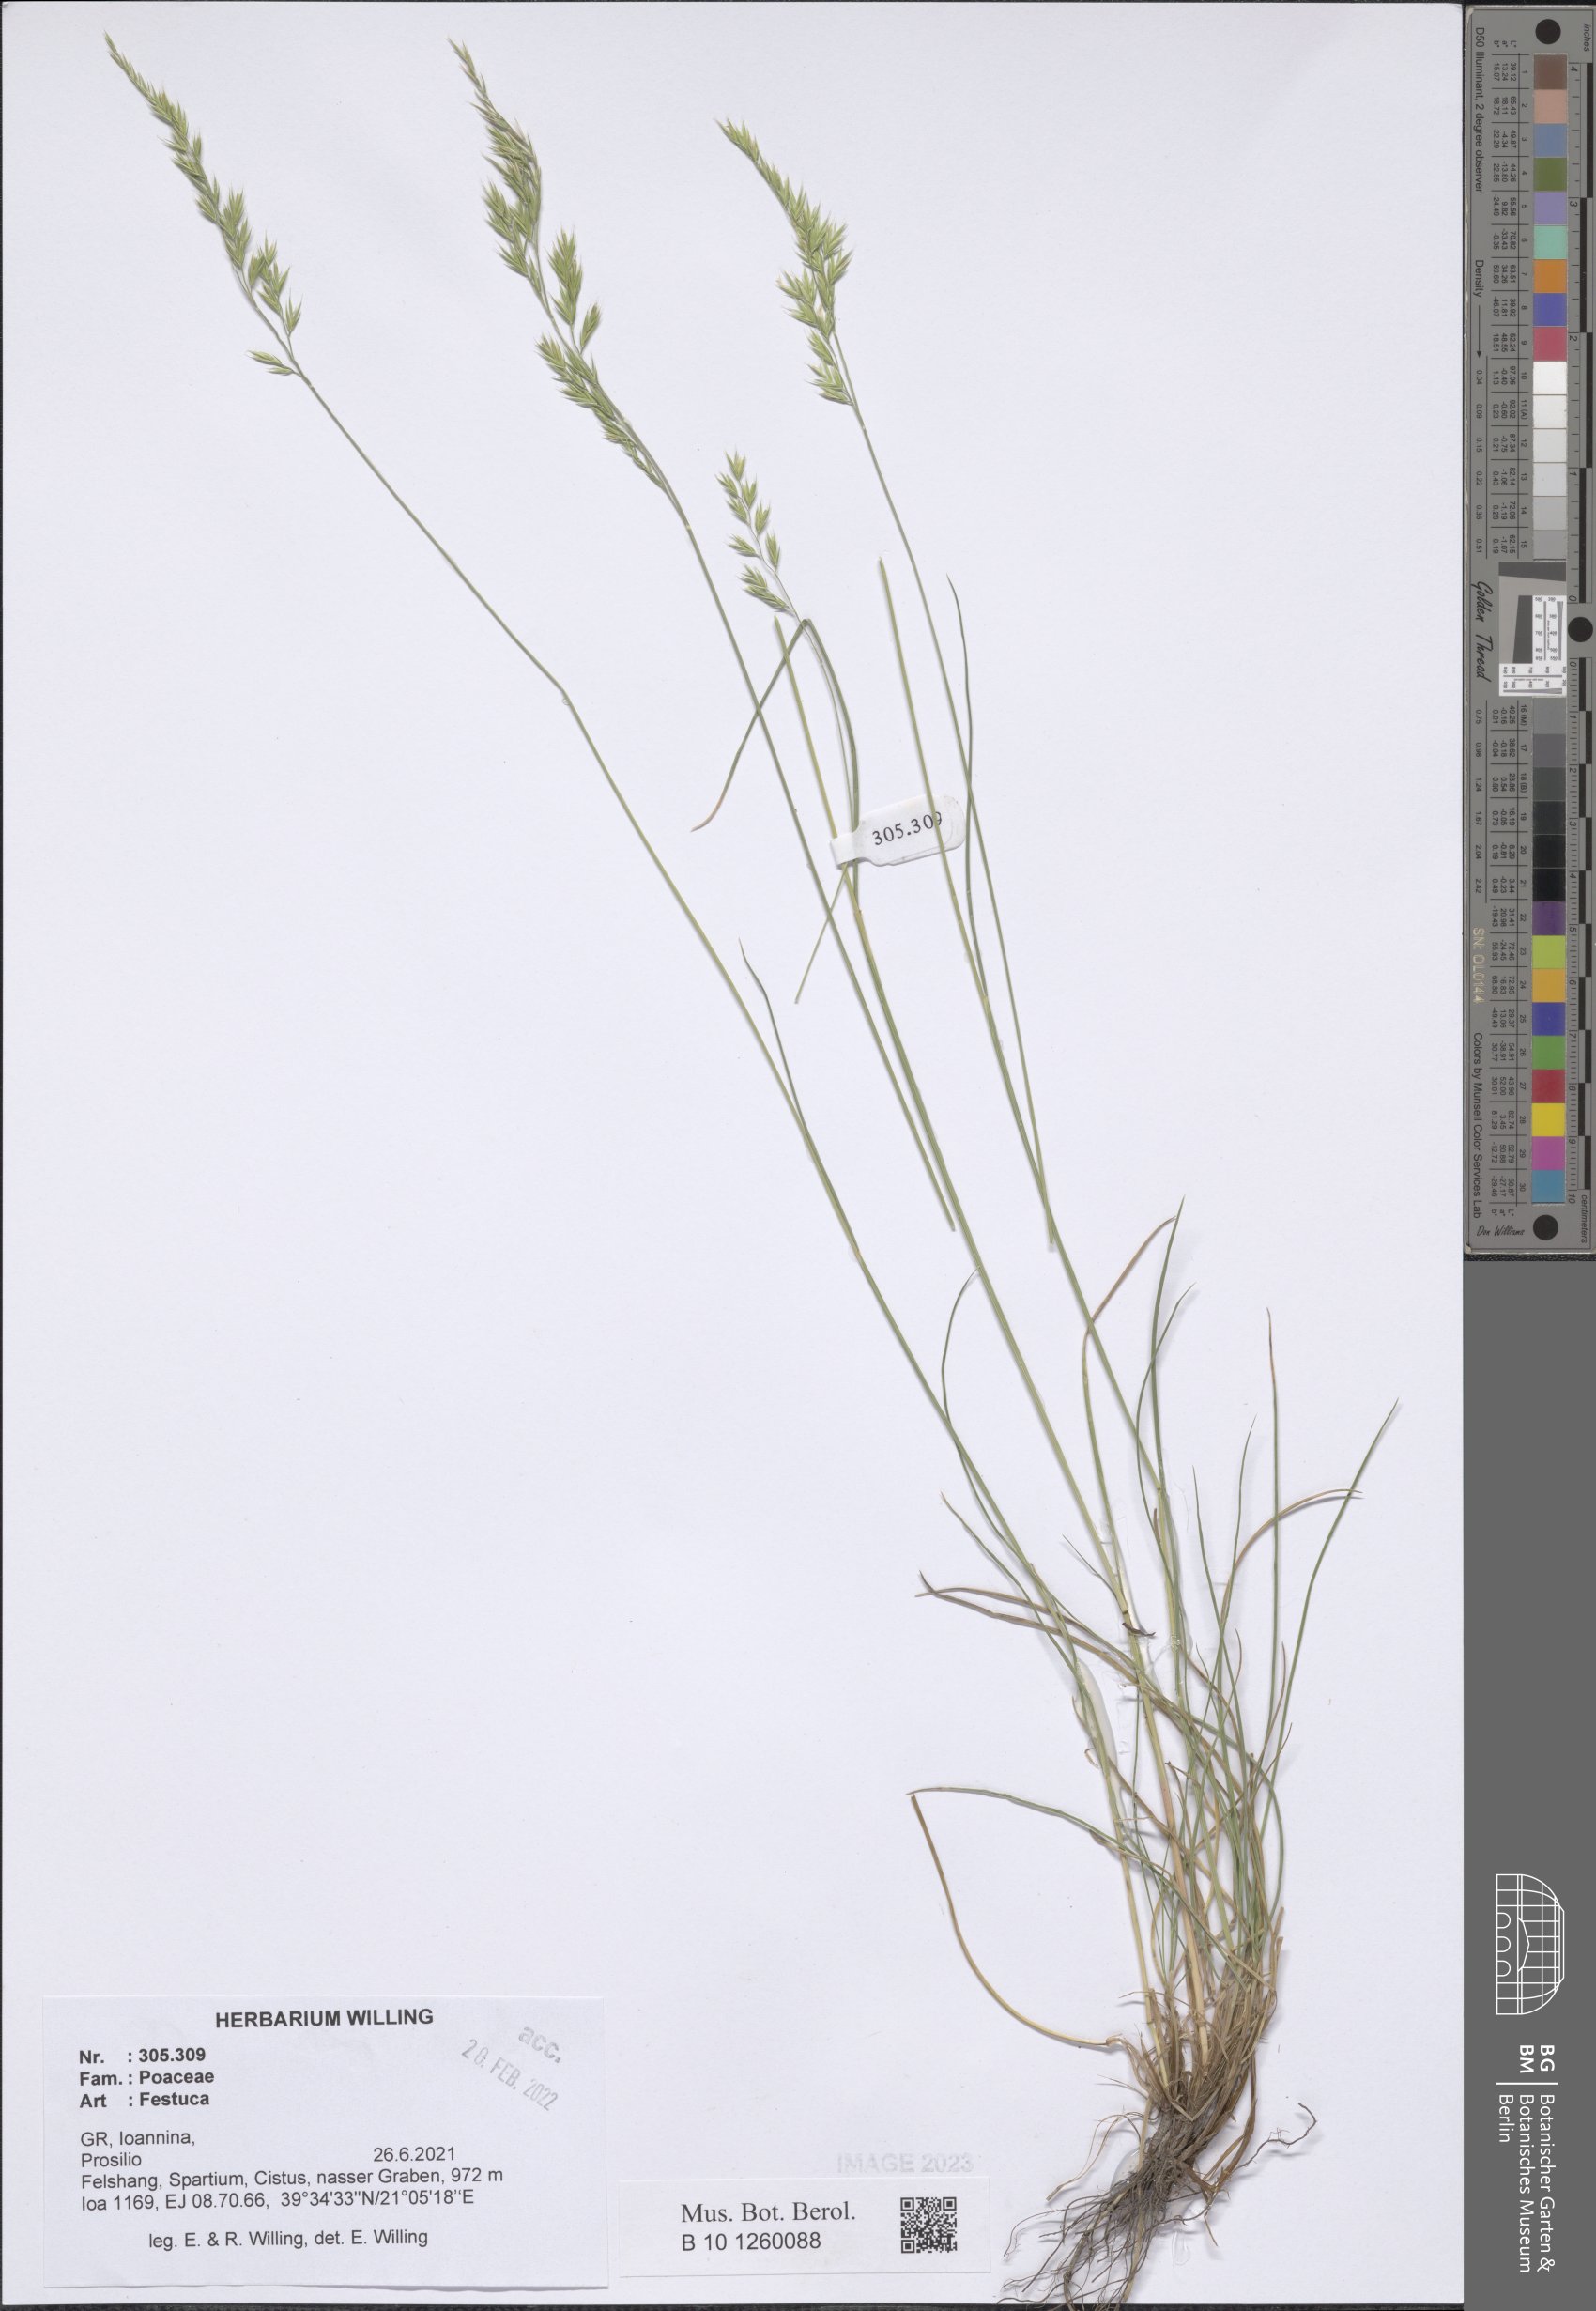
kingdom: Plantae
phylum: Tracheophyta
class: Liliopsida
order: Poales
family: Poaceae
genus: Festuca
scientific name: Festuca
